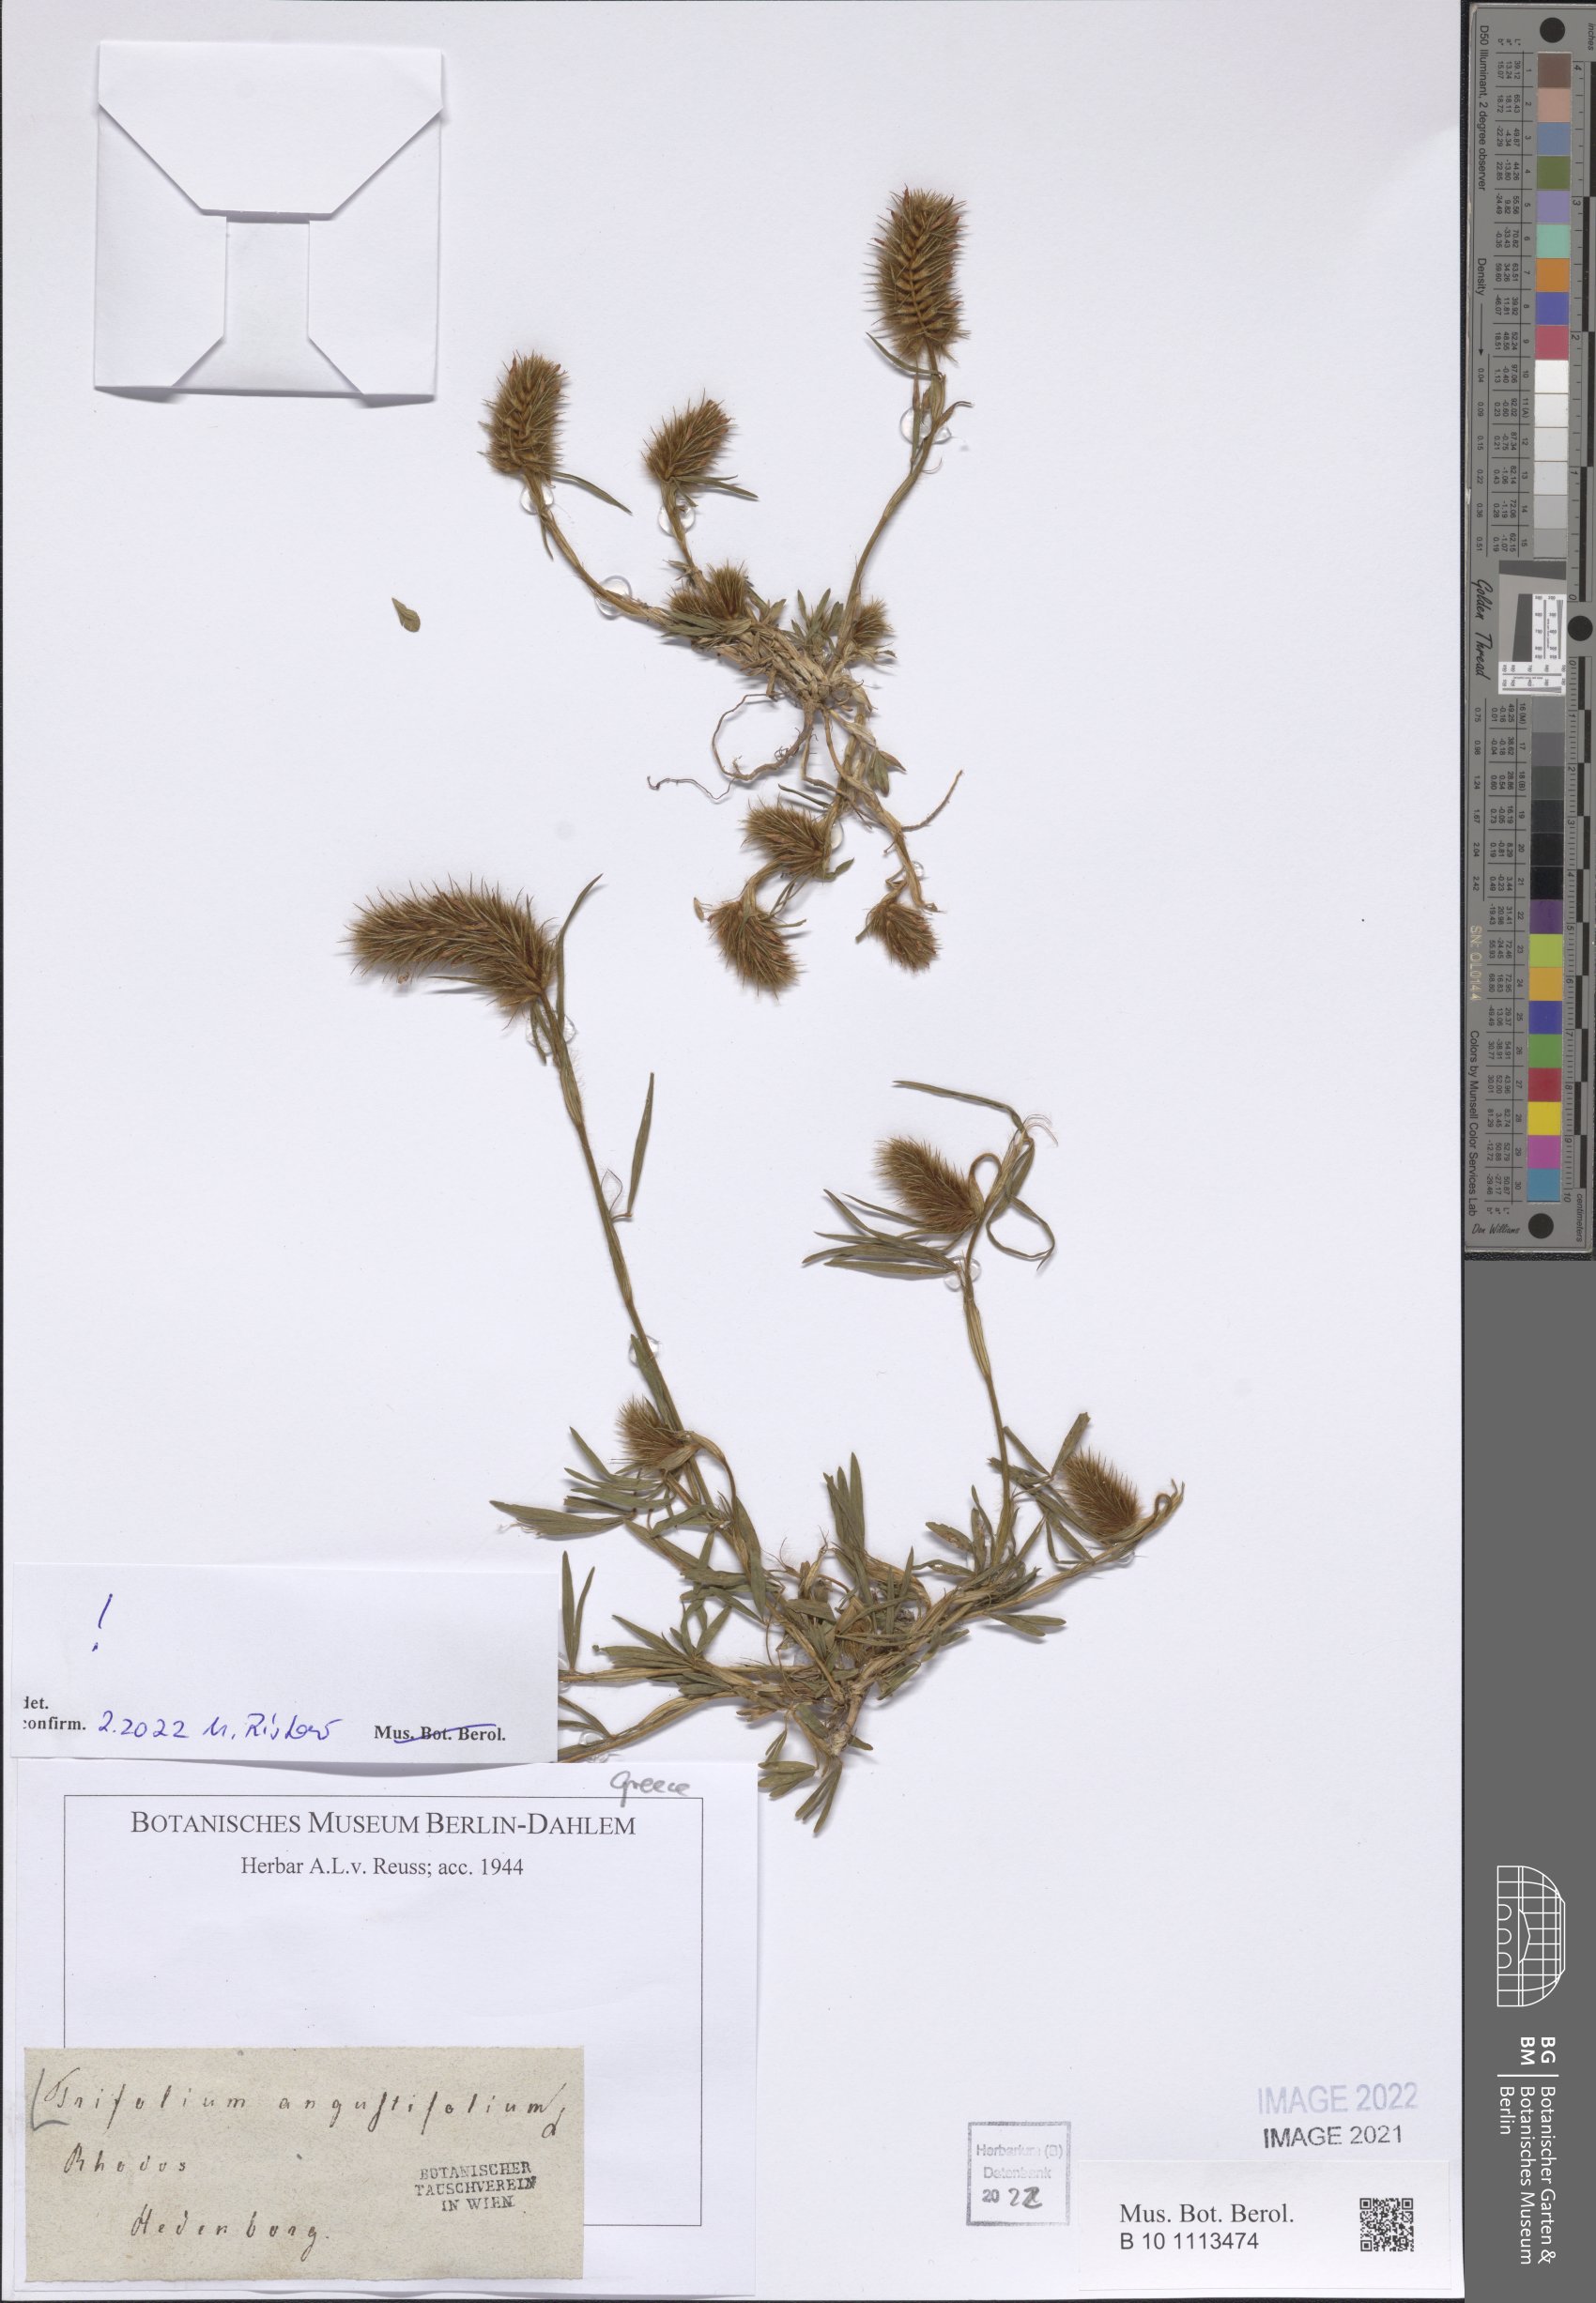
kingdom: Plantae
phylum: Tracheophyta
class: Magnoliopsida
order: Fabales
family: Fabaceae
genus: Trifolium
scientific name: Trifolium angustifolium
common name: Narrow clover
